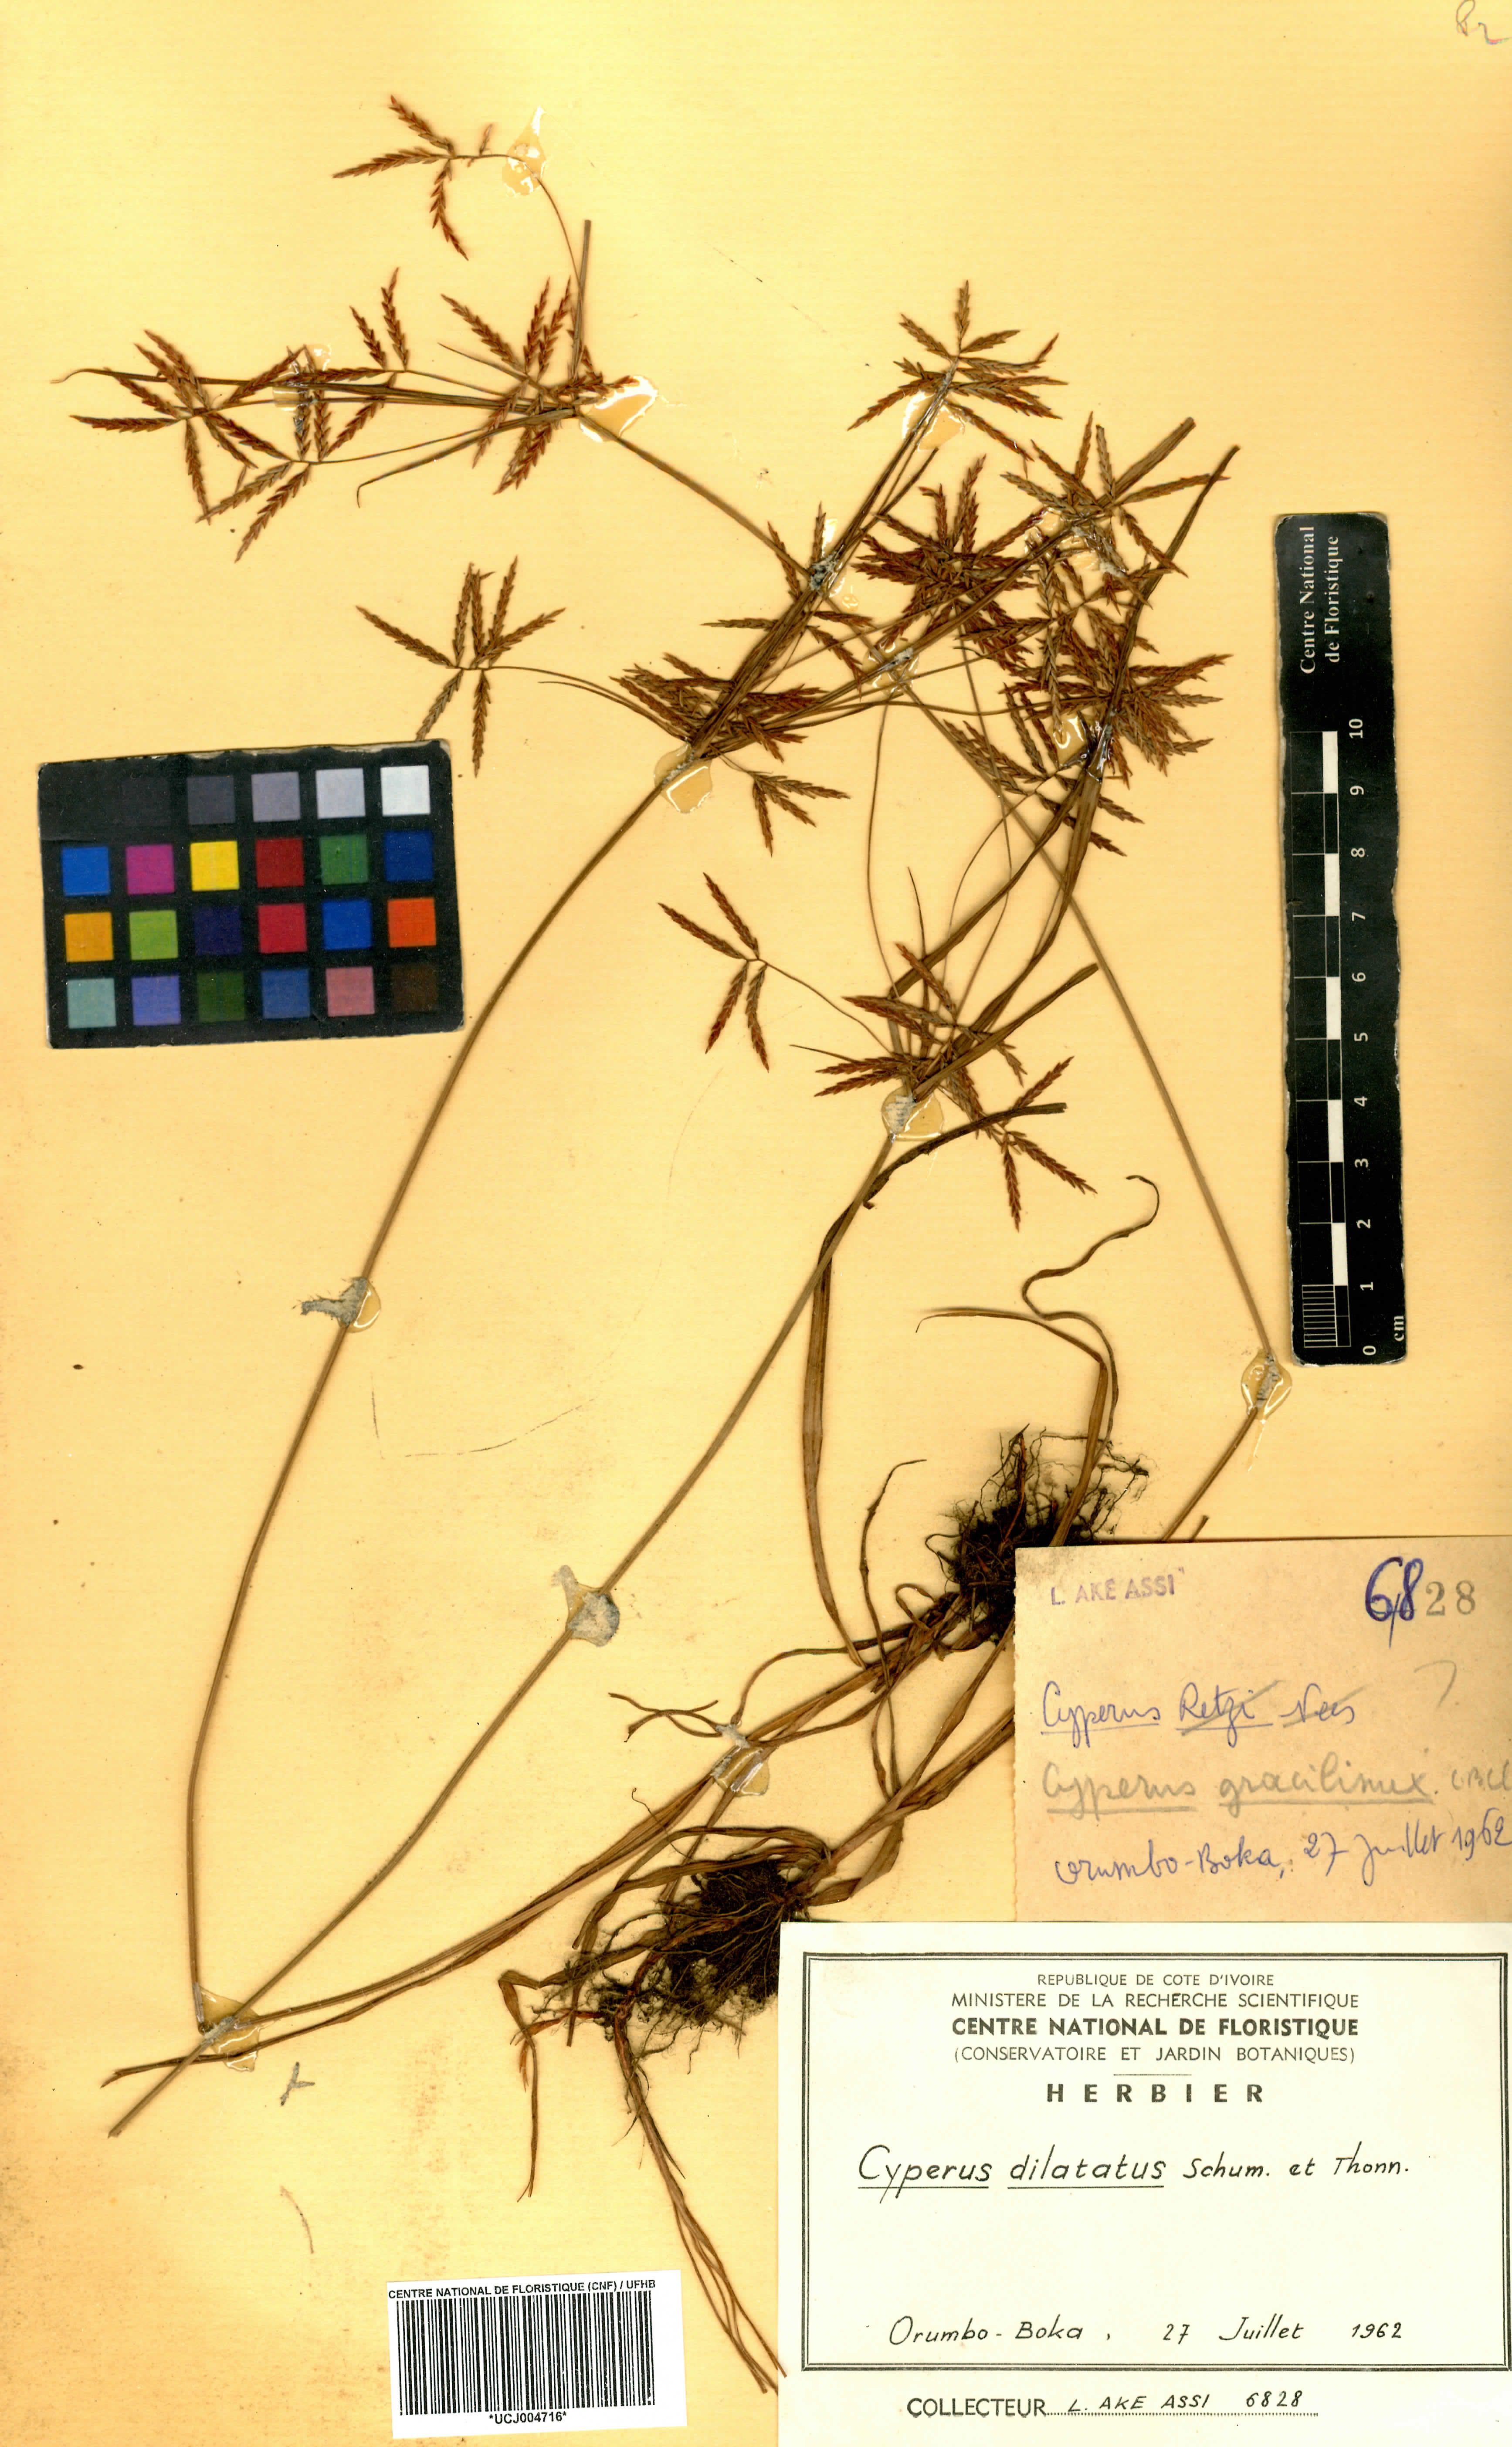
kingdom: Plantae
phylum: Tracheophyta
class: Liliopsida
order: Poales
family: Cyperaceae
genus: Cyperus
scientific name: Cyperus dilatatus
